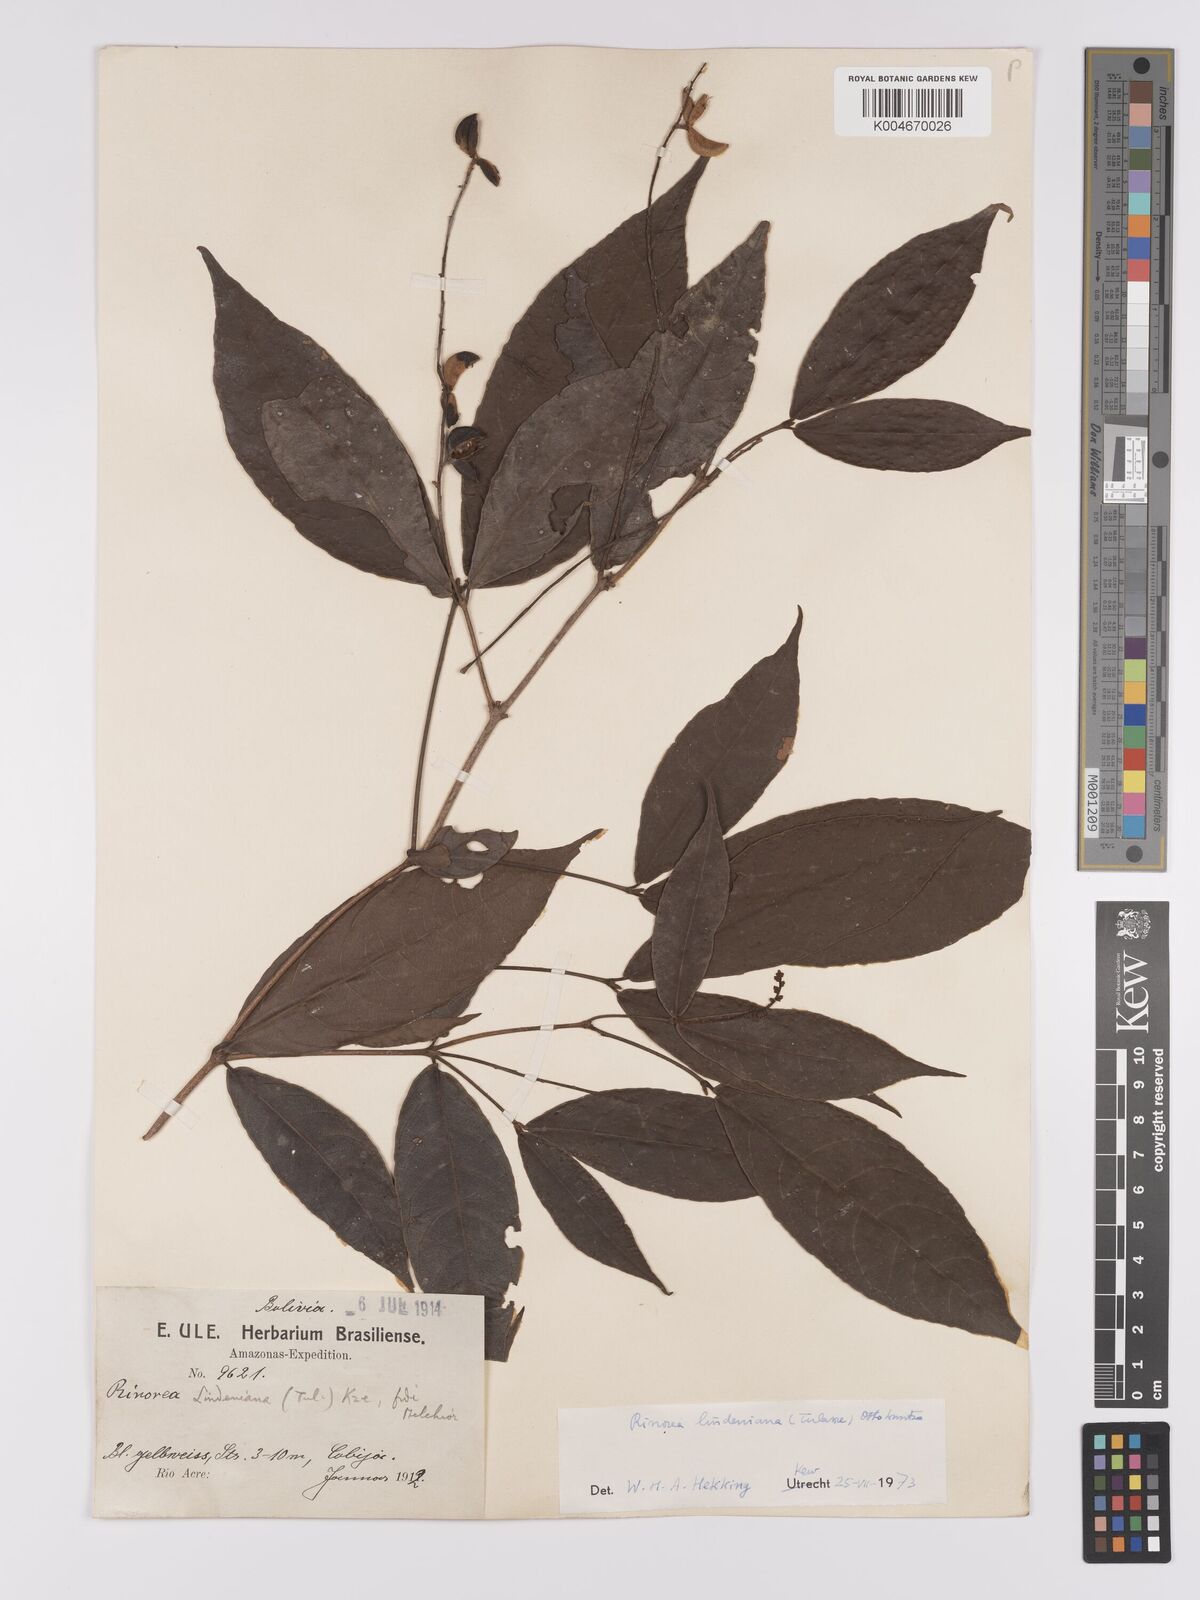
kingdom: Plantae
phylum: Tracheophyta
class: Magnoliopsida
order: Malpighiales
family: Violaceae
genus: Rinorea
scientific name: Rinorea lindeniana
